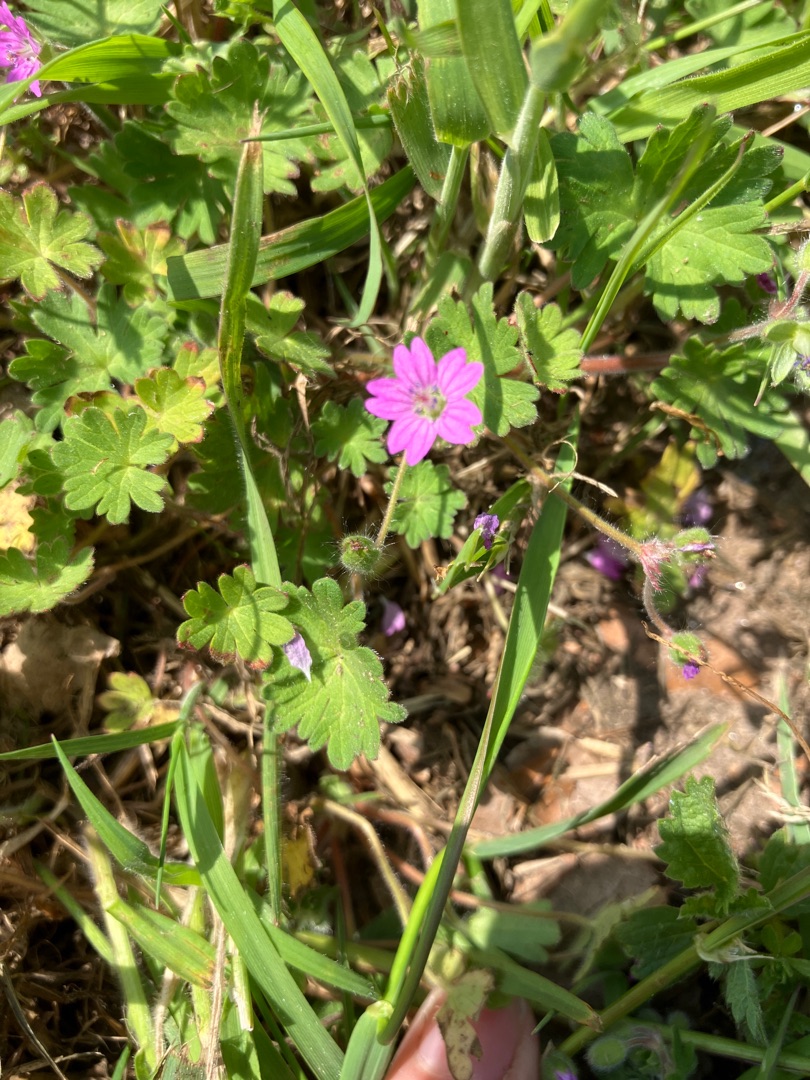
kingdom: Plantae
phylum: Tracheophyta
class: Magnoliopsida
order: Geraniales
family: Geraniaceae
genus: Geranium
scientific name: Geranium molle
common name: Blød storkenæb
